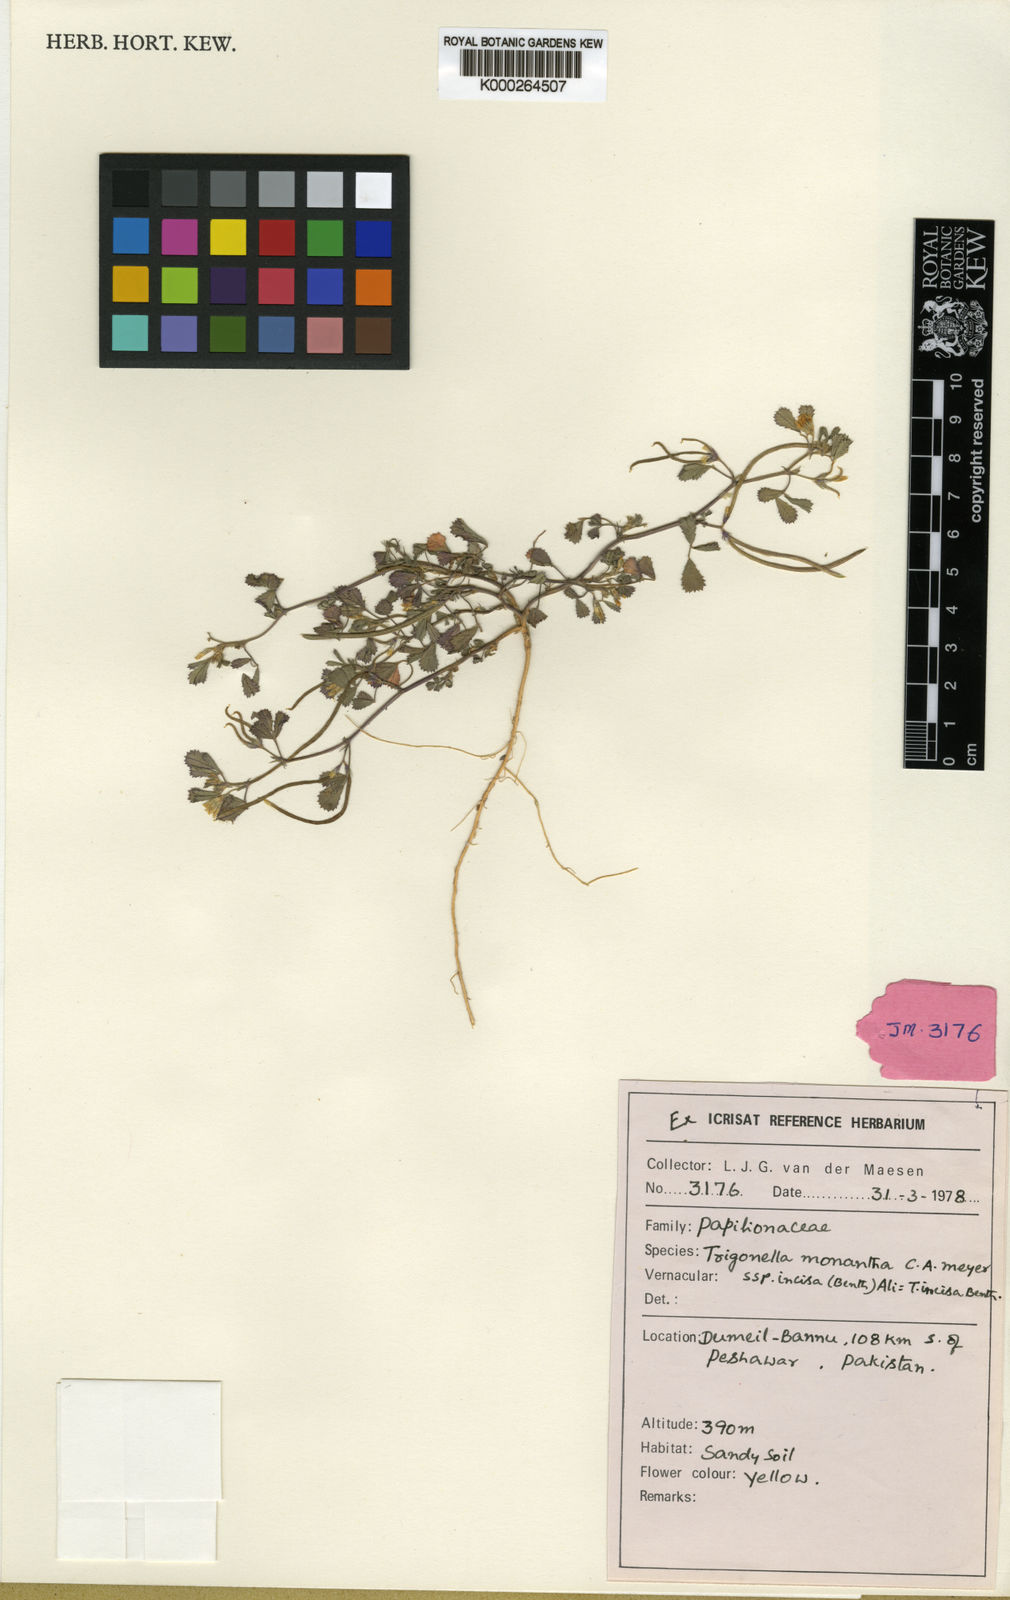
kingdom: Plantae
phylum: Tracheophyta
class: Magnoliopsida
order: Fabales
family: Fabaceae
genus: Medicago
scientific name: Medicago monantha
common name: Medick
